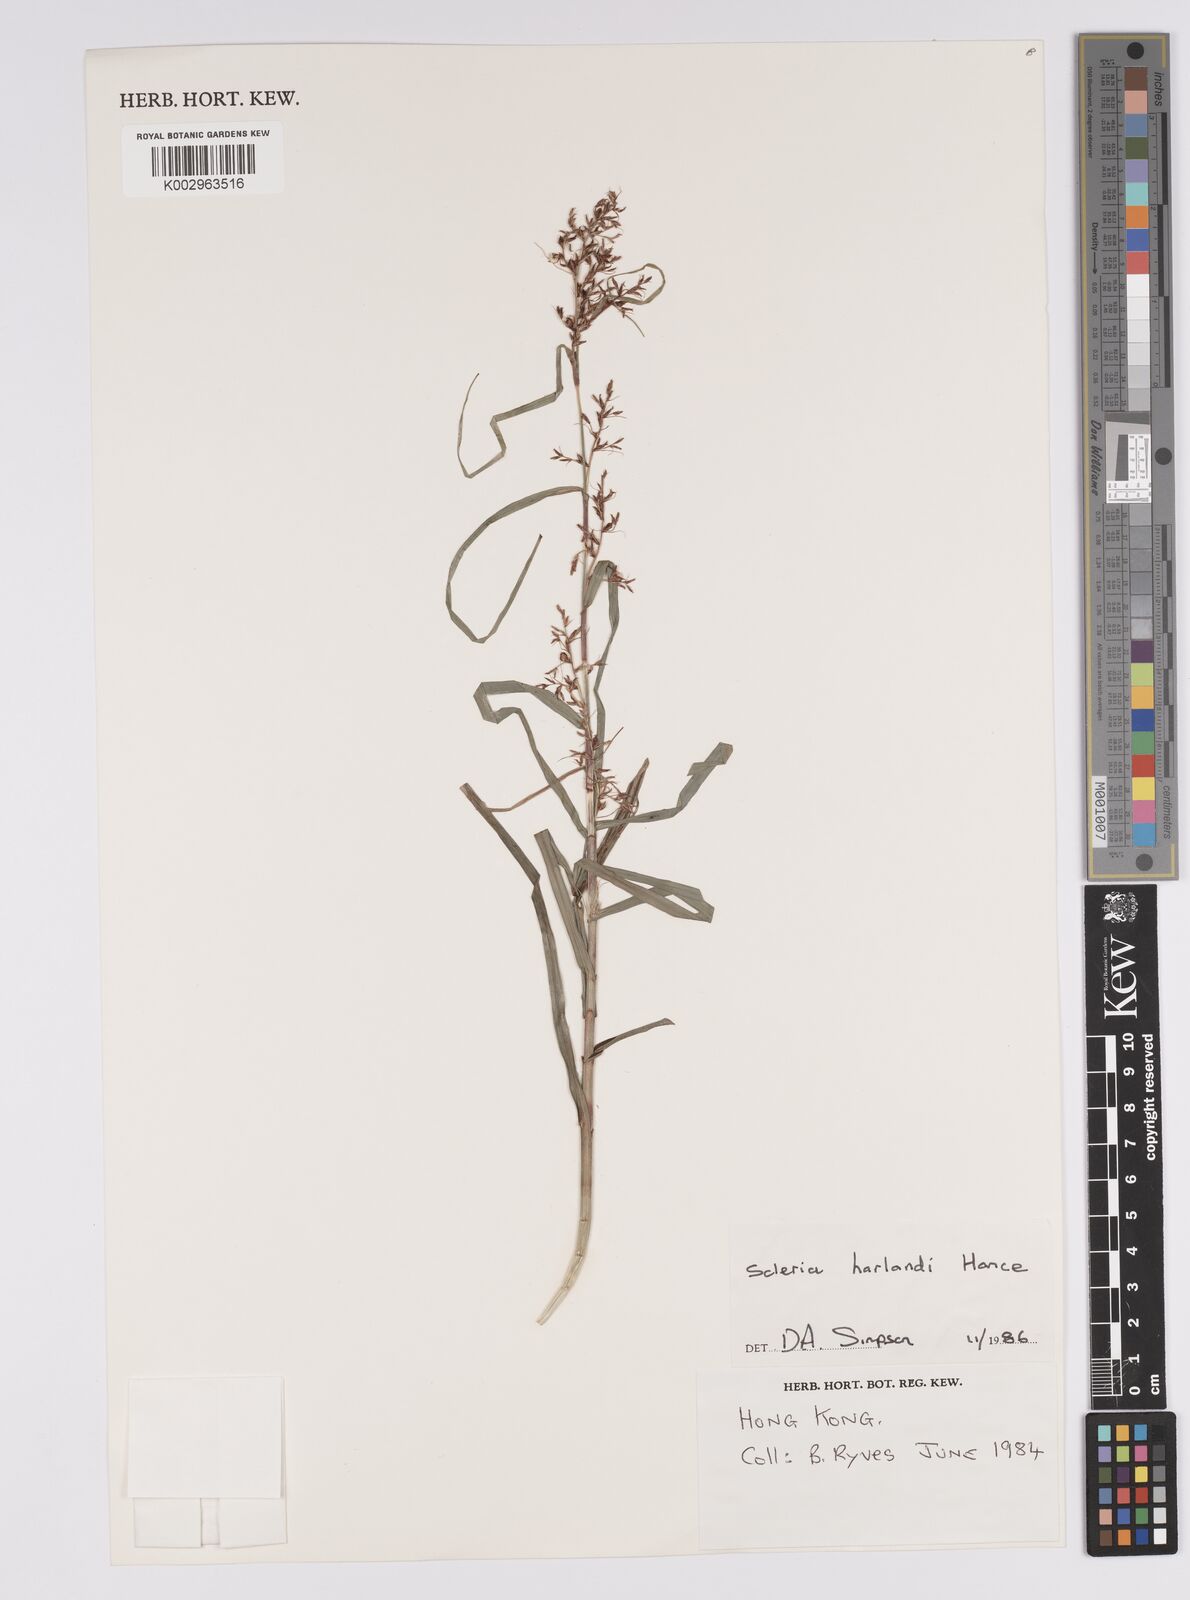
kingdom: Plantae
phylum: Tracheophyta
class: Liliopsida
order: Poales
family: Cyperaceae
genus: Scleria
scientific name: Scleria harlandii
